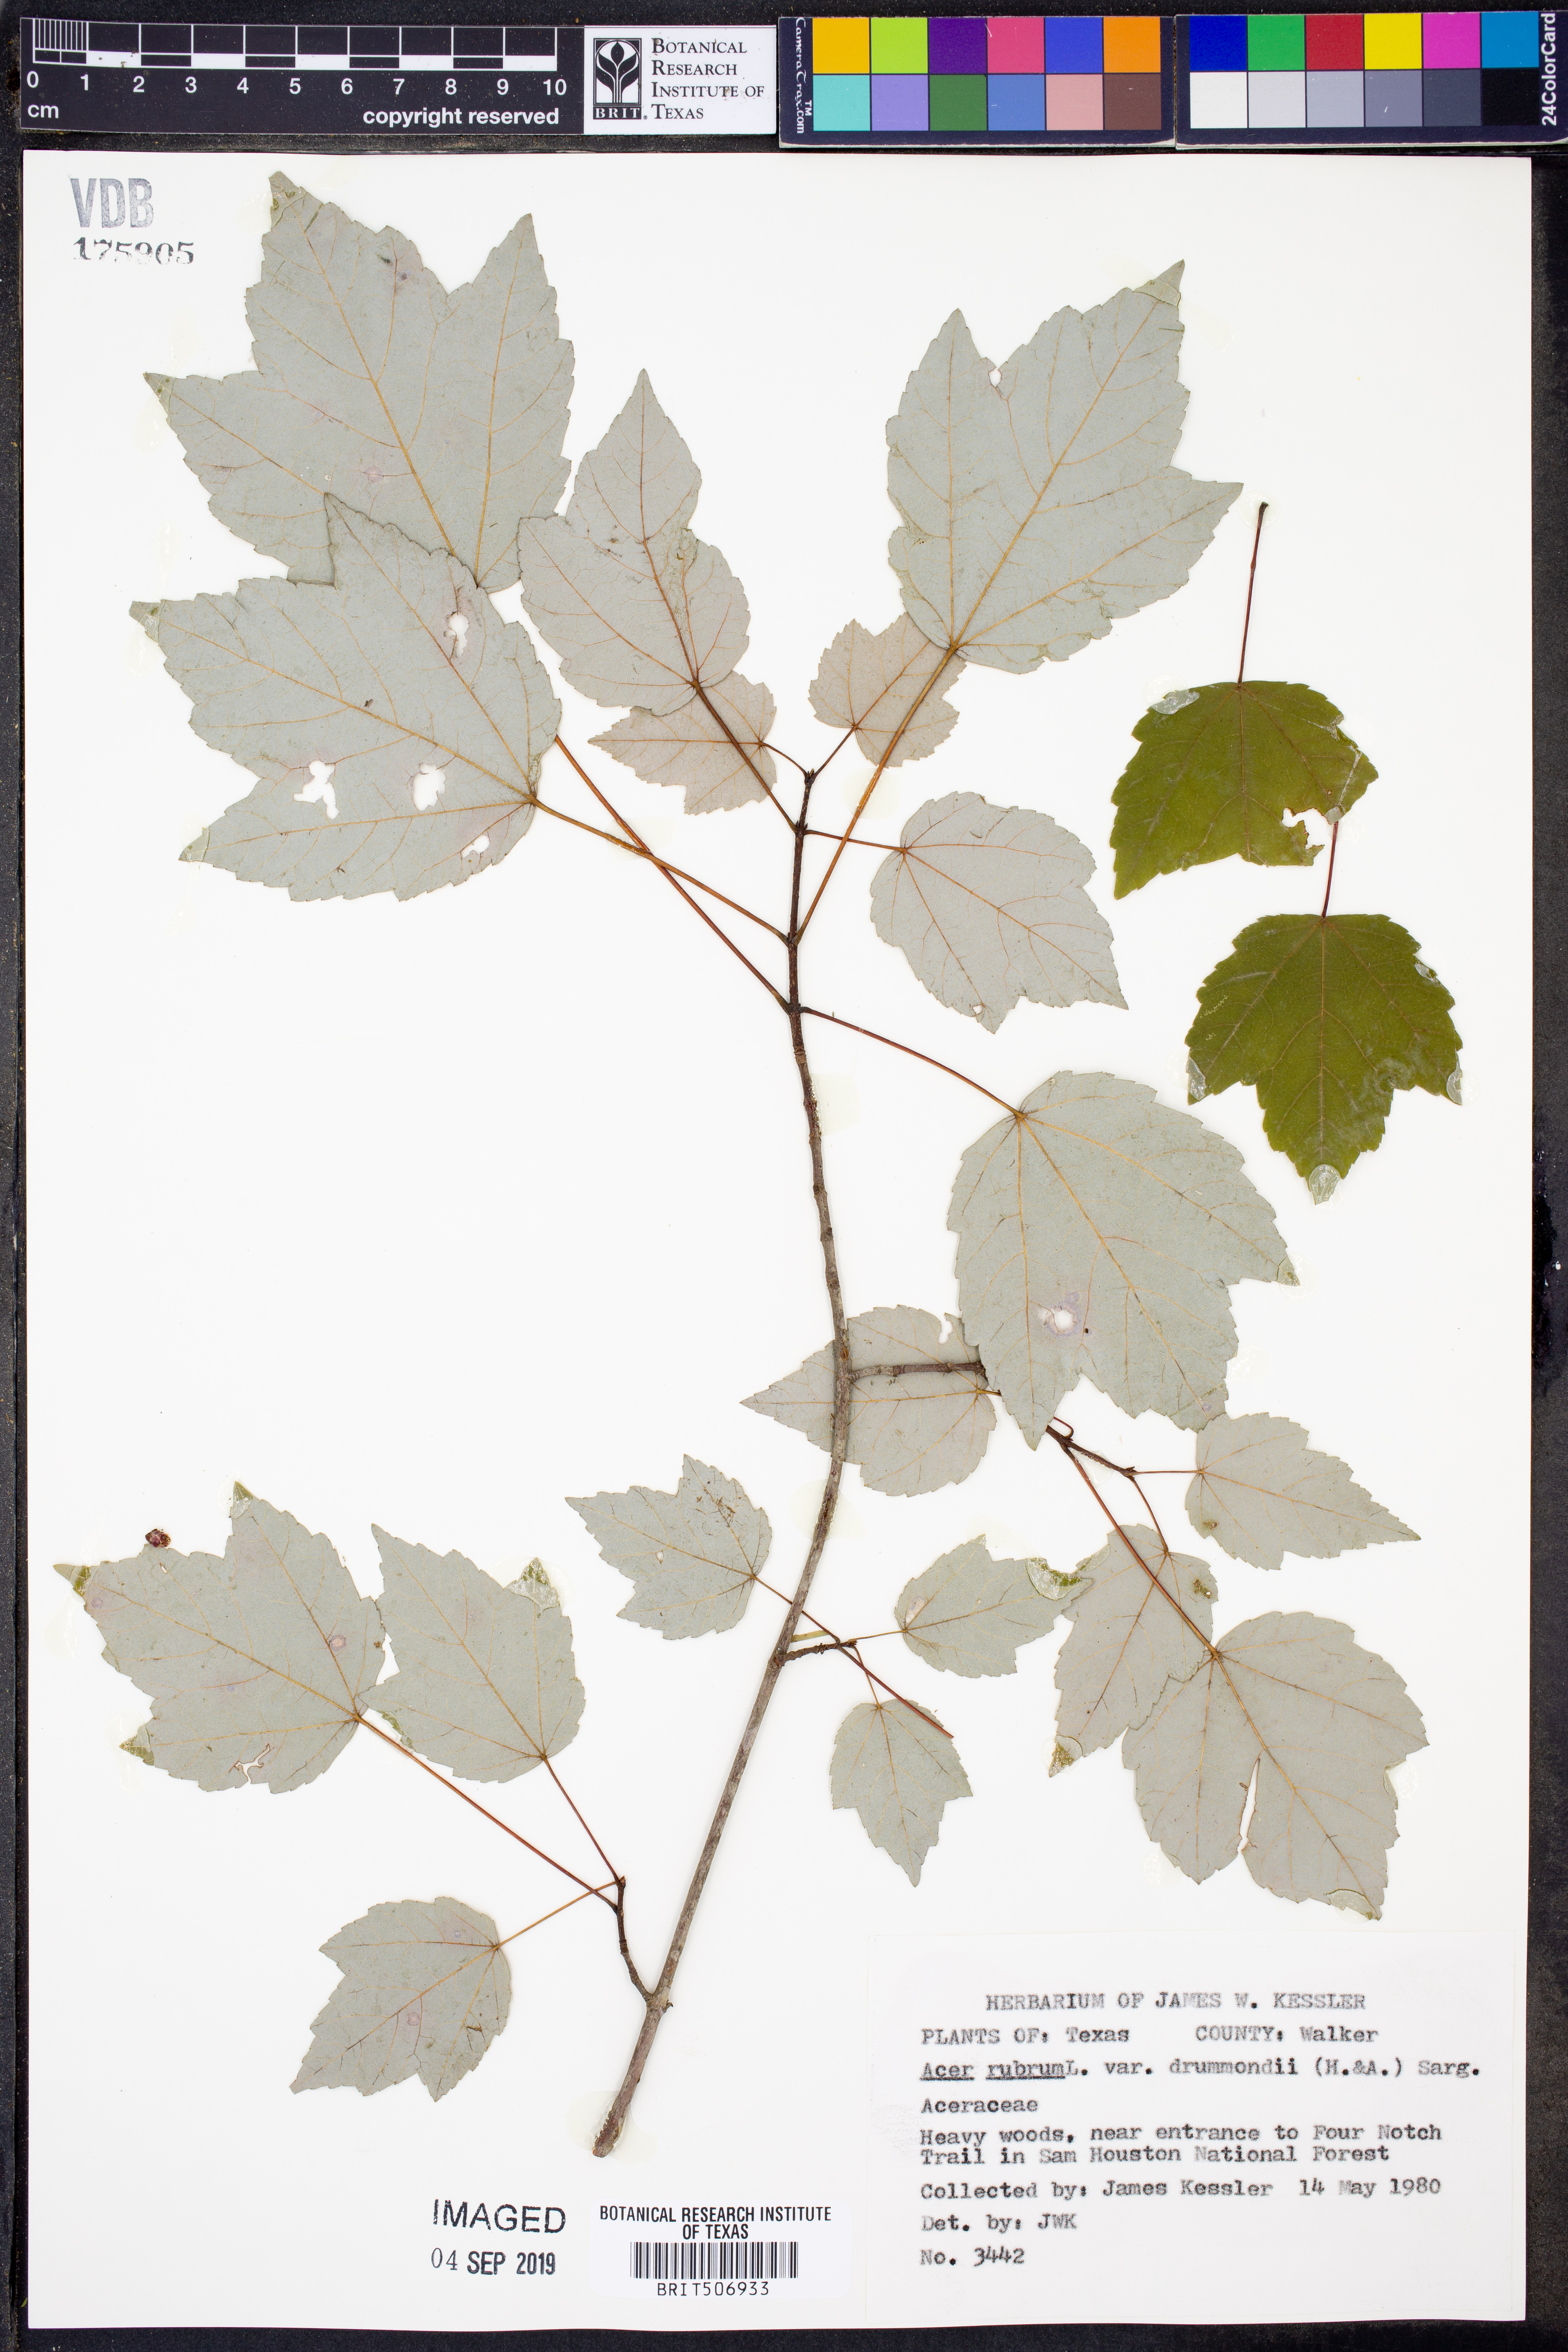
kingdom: Plantae
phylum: Tracheophyta
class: Magnoliopsida
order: Sapindales
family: Sapindaceae
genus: Acer
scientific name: Acer rubrum
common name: Red maple
